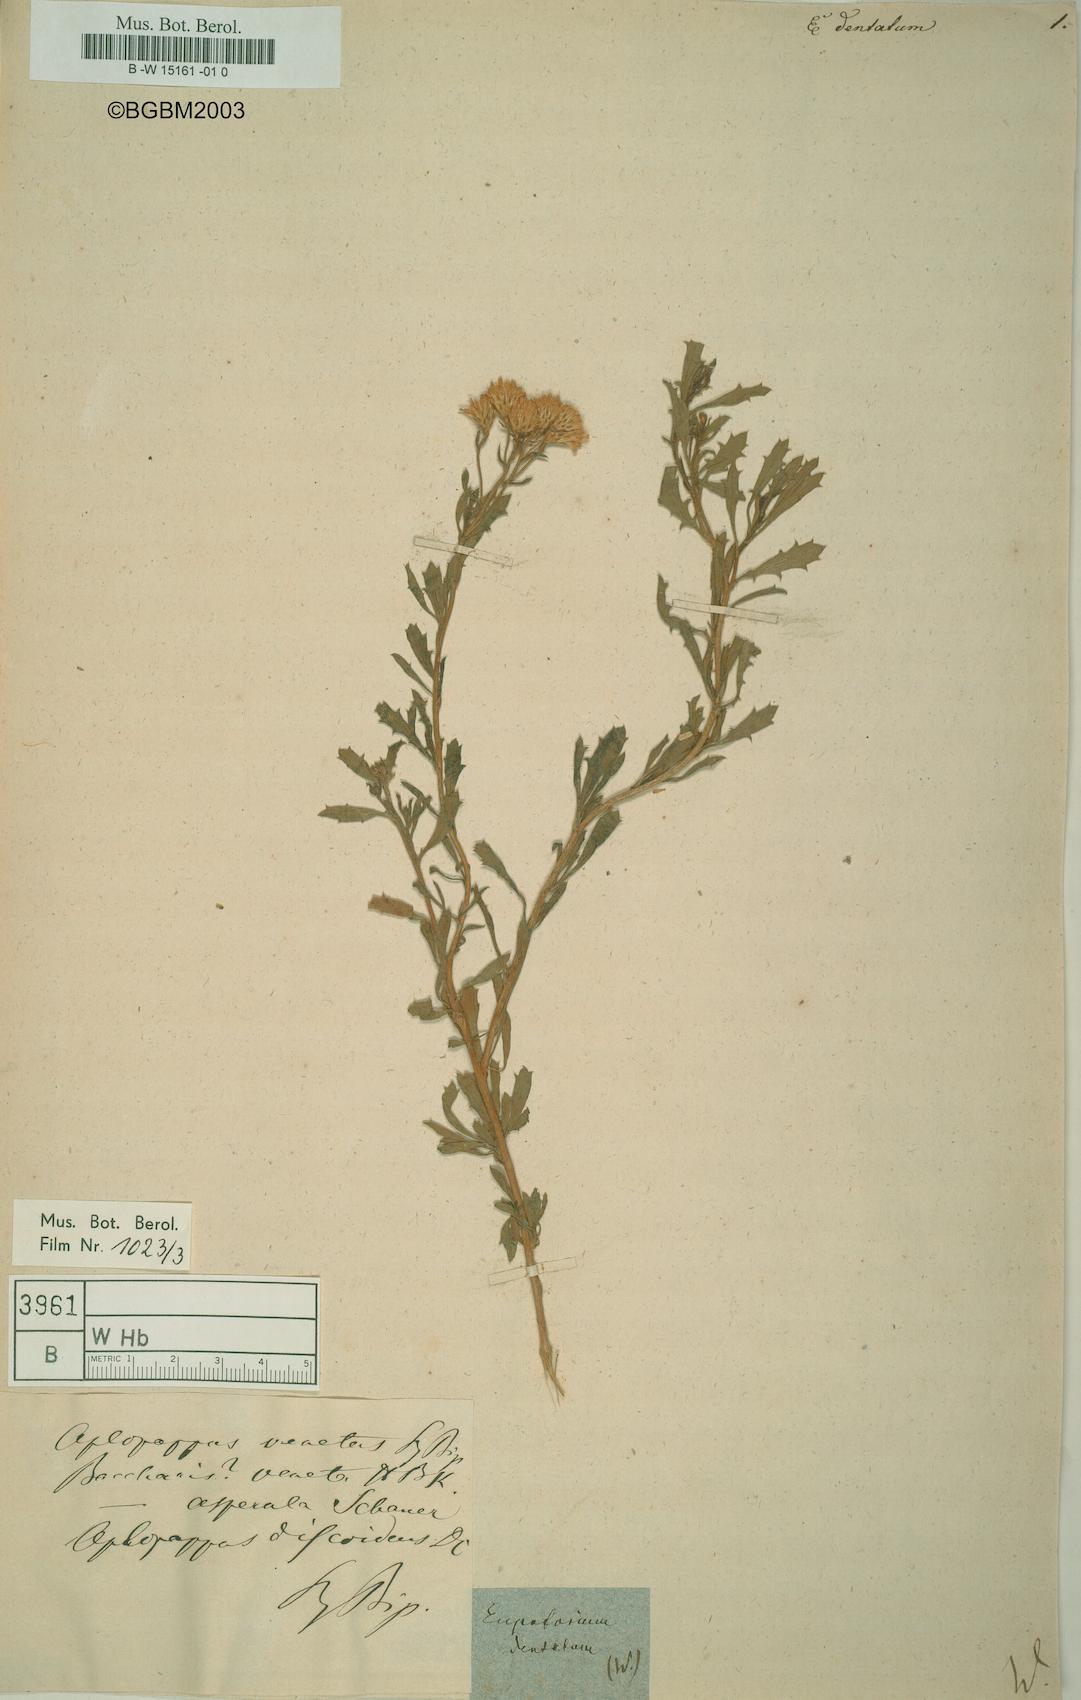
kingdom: Plantae
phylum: Tracheophyta
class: Magnoliopsida
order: Asterales
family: Asteraceae
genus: Stomatanthes
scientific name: Stomatanthes dentatus
